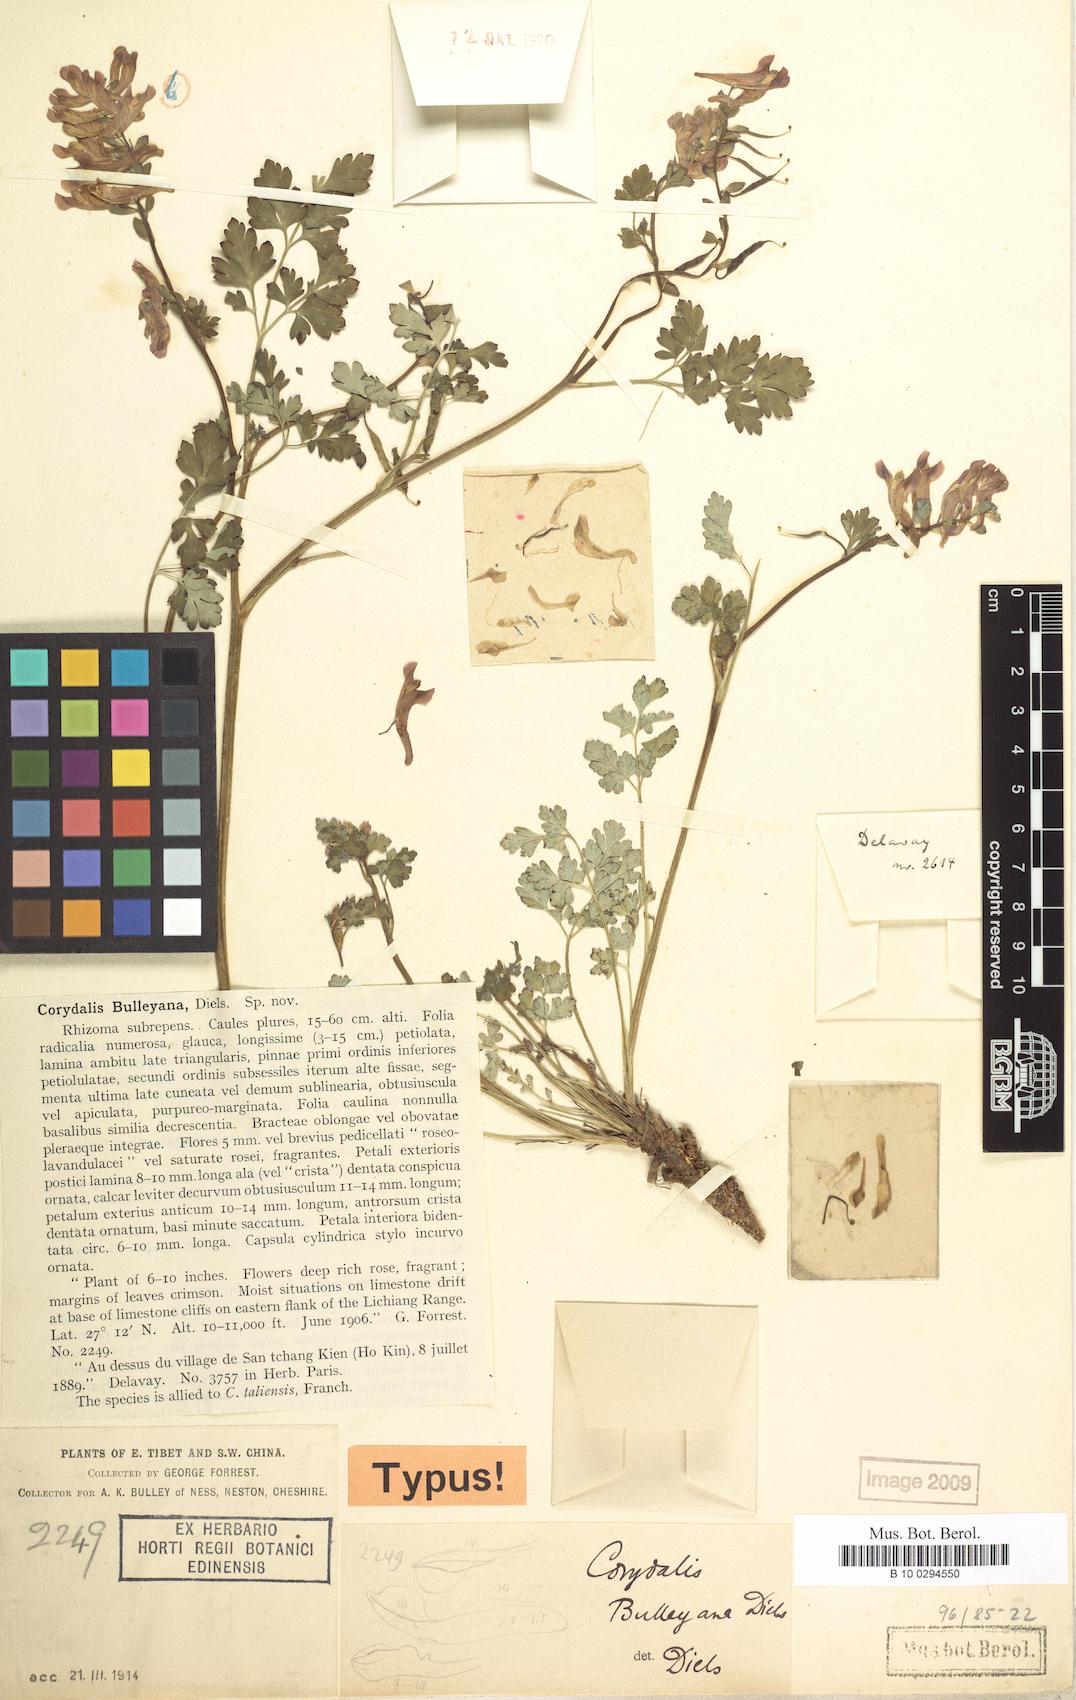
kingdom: Plantae
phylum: Tracheophyta
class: Magnoliopsida
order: Ranunculales
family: Papaveraceae
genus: Corydalis
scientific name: Corydalis bulleyana
